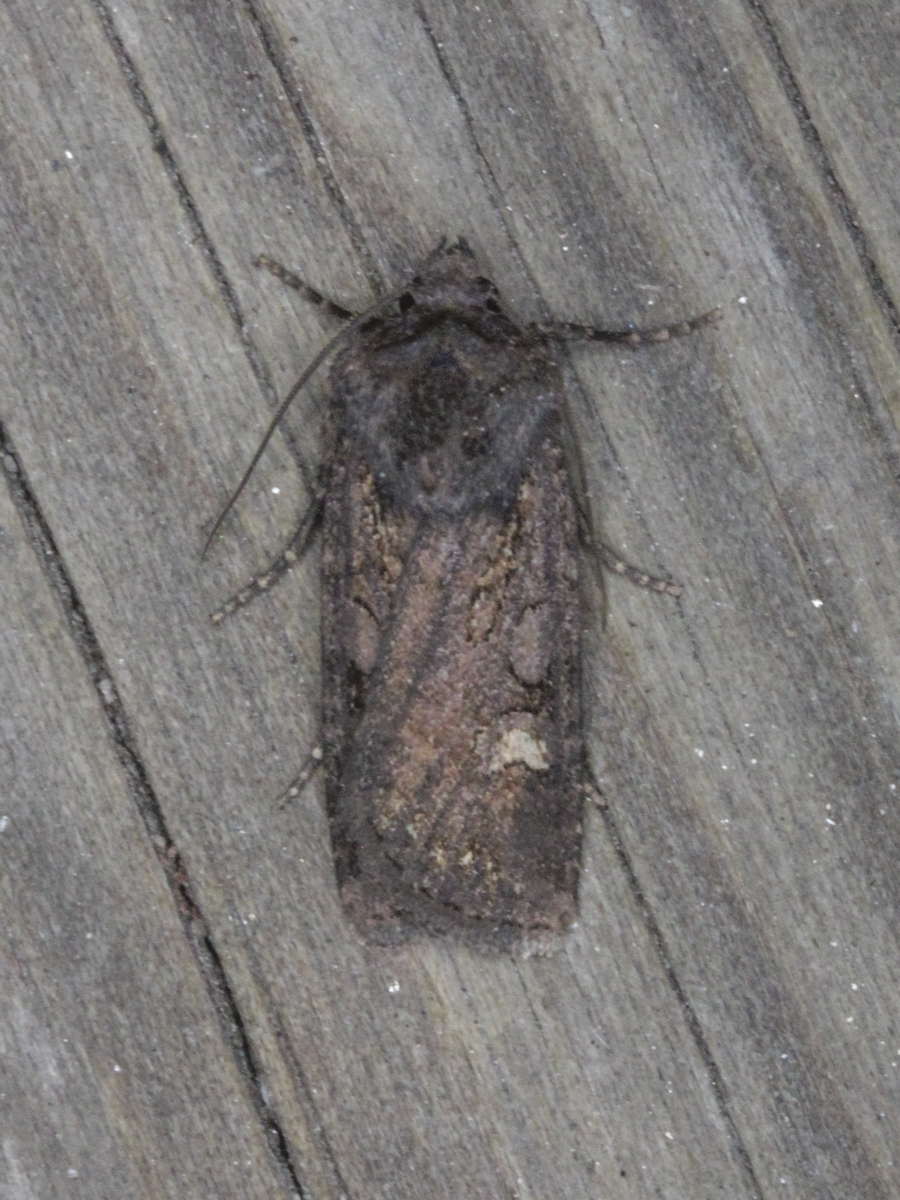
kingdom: Animalia
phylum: Arthropoda
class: Insecta
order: Lepidoptera
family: Noctuidae
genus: Euxoa
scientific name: Euxoa nigricans
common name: Garden dart
